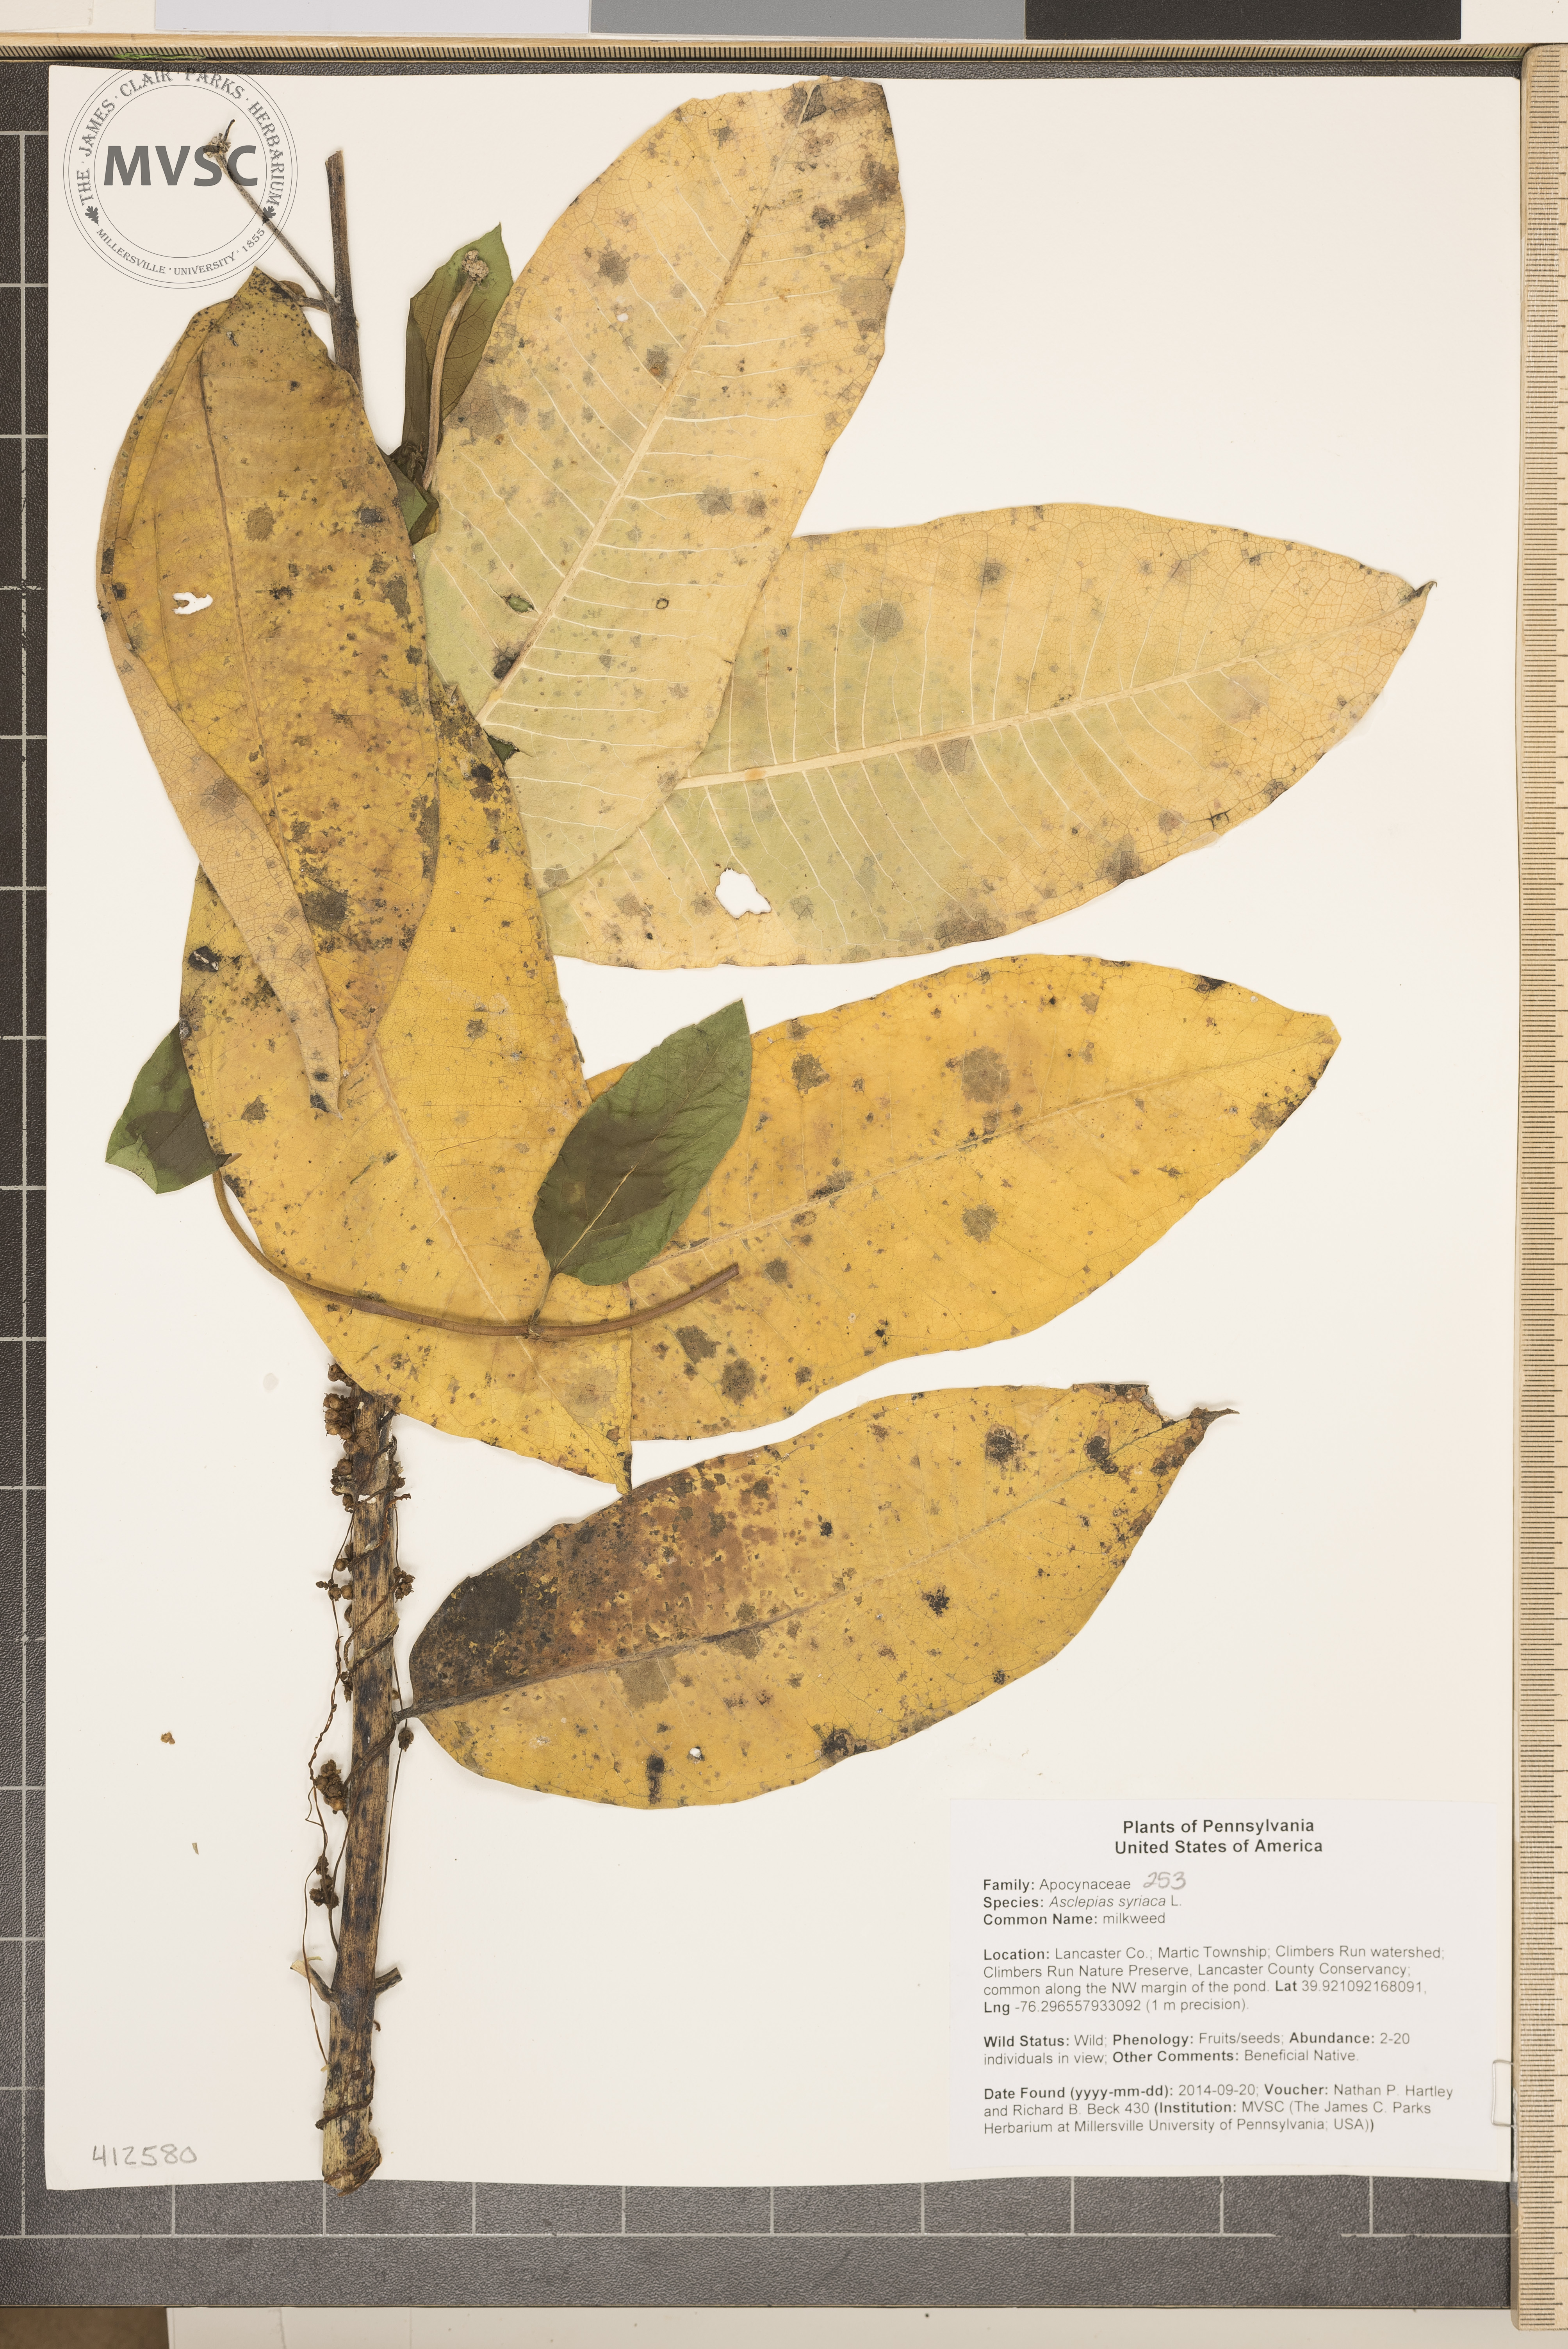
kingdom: Plantae
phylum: Tracheophyta
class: Magnoliopsida
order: Gentianales
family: Apocynaceae
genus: Asclepias
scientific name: Asclepias syriaca
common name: common milkweed
